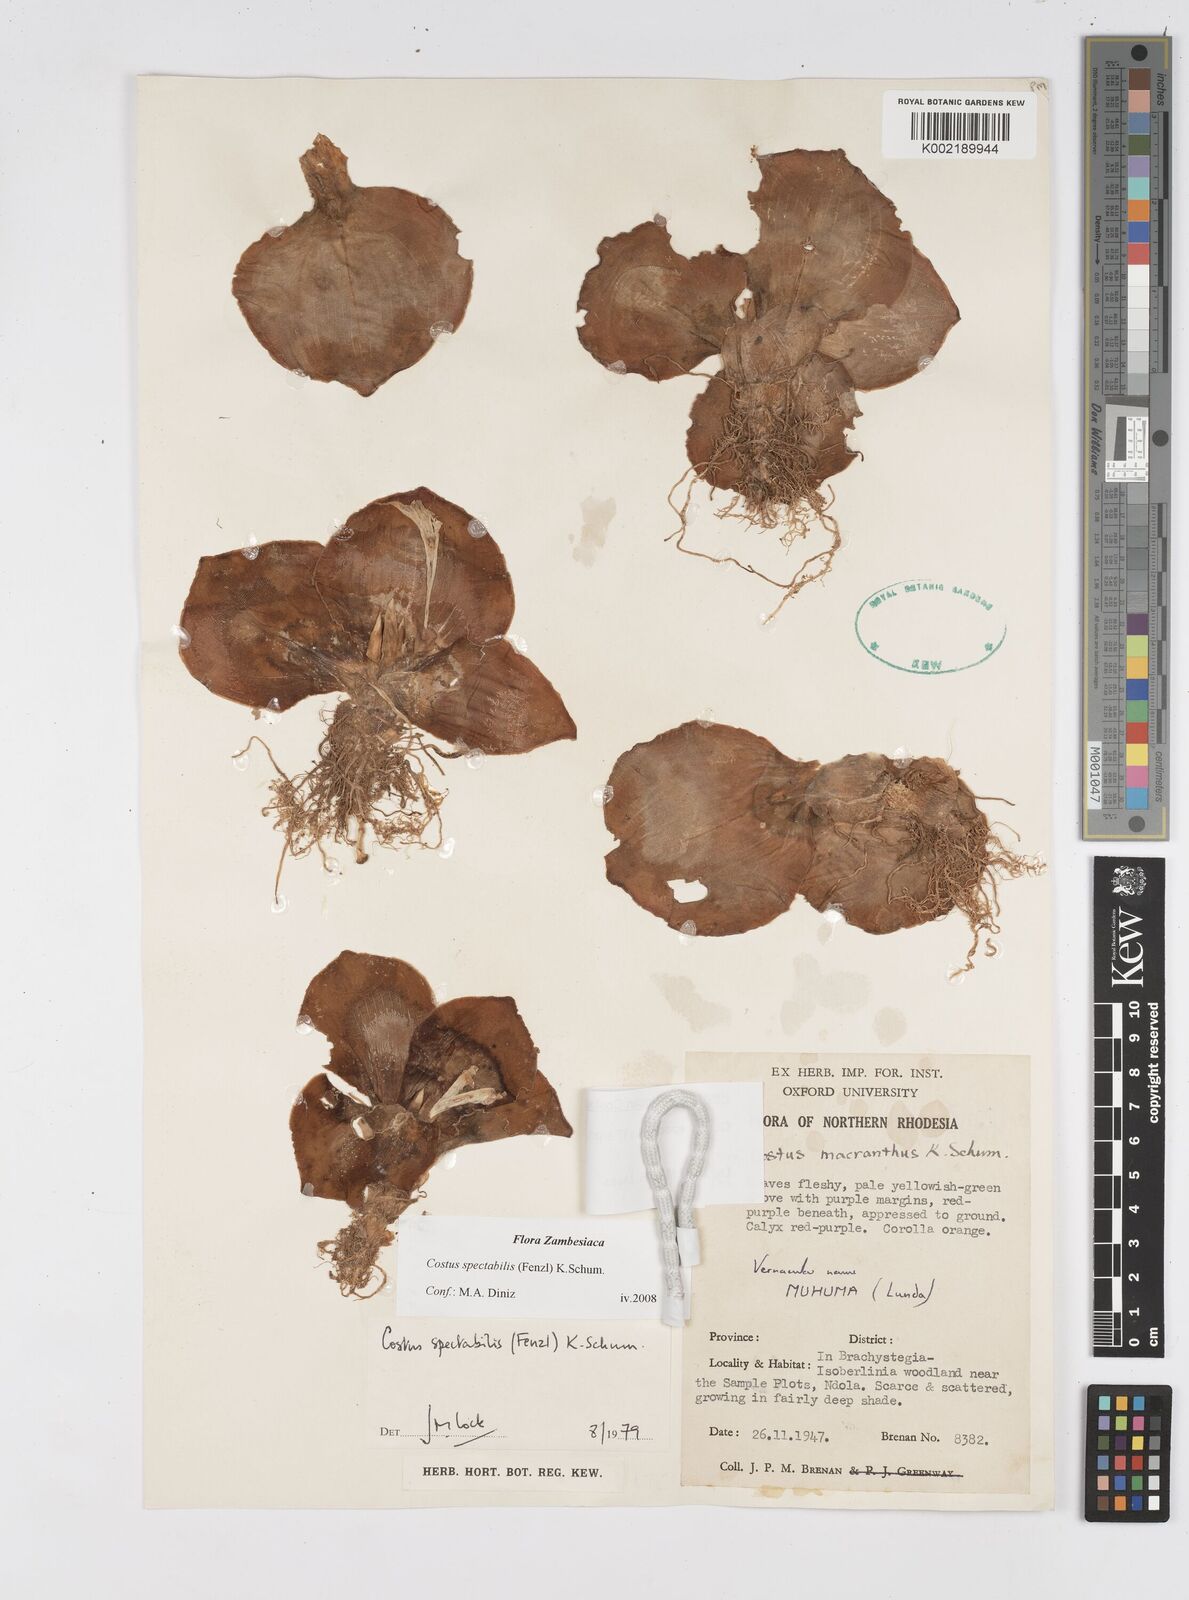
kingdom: Plantae
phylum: Tracheophyta
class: Liliopsida
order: Zingiberales
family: Costaceae
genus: Costus
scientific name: Costus spectabilis
